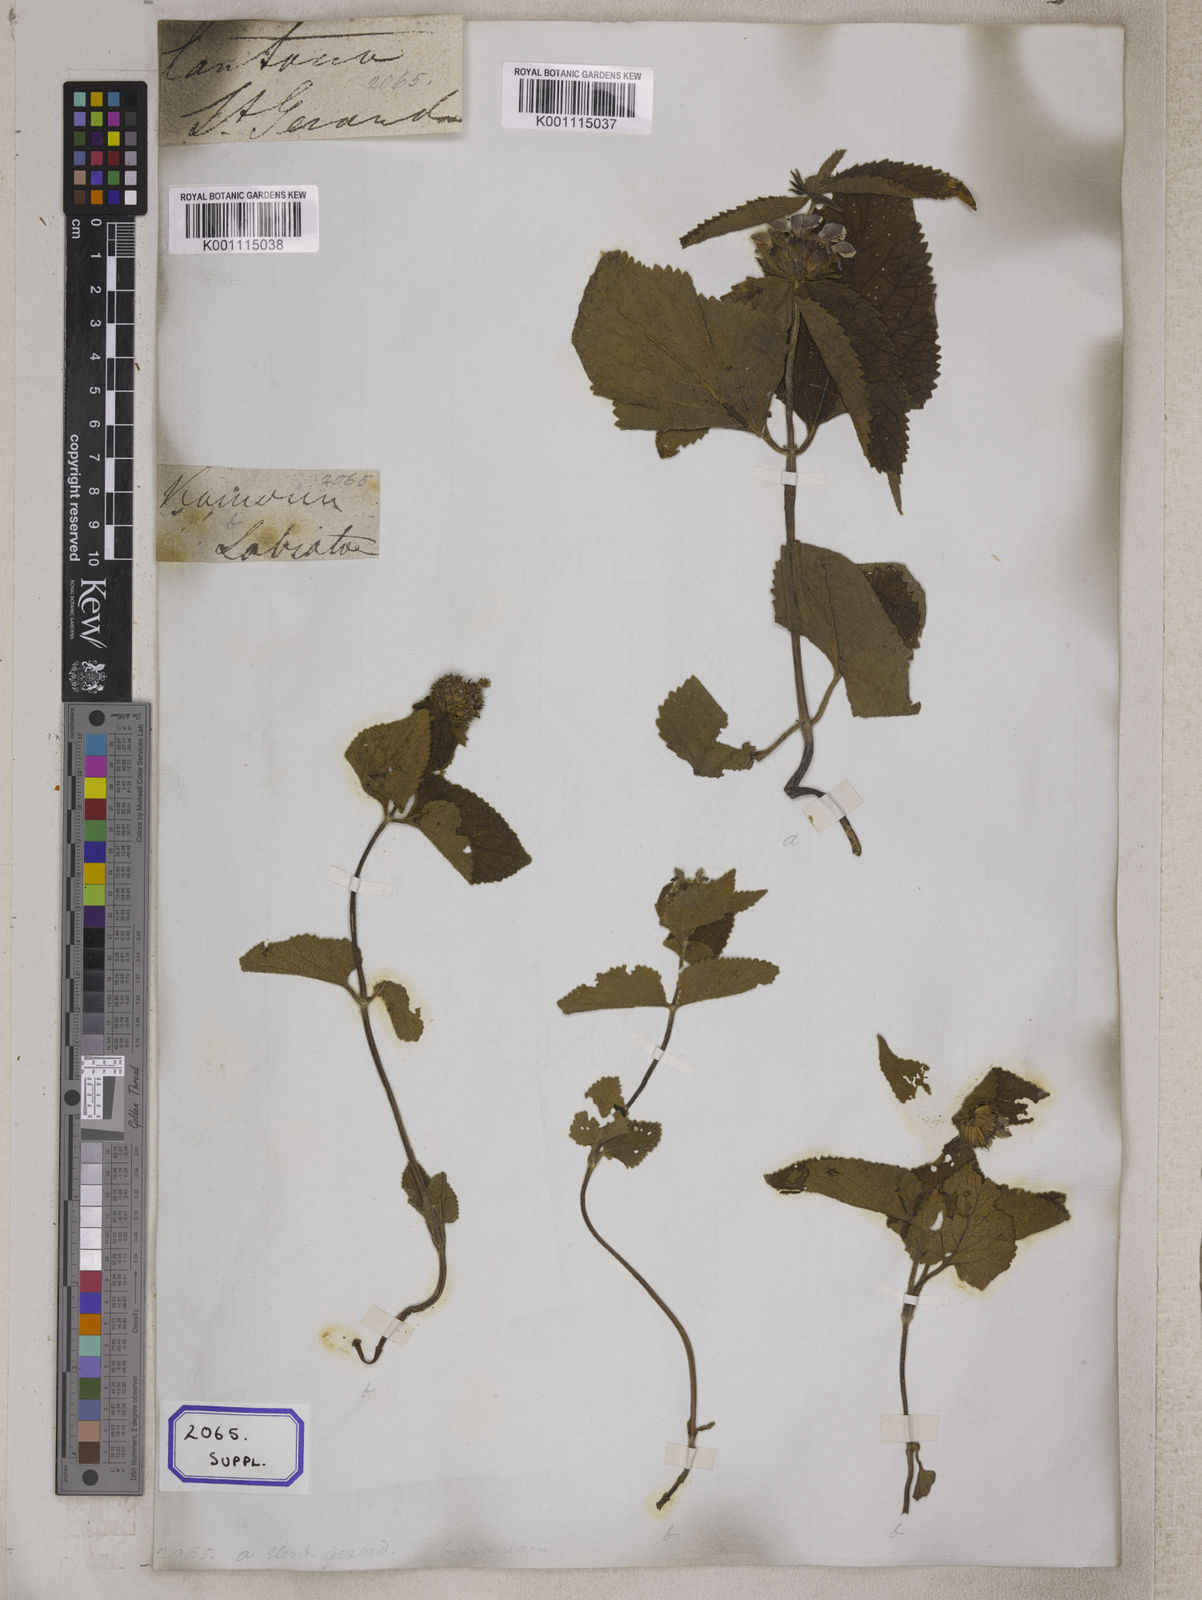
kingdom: Plantae
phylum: Tracheophyta
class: Magnoliopsida
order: Lamiales
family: Lamiaceae
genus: Phlomis
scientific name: Phlomis
